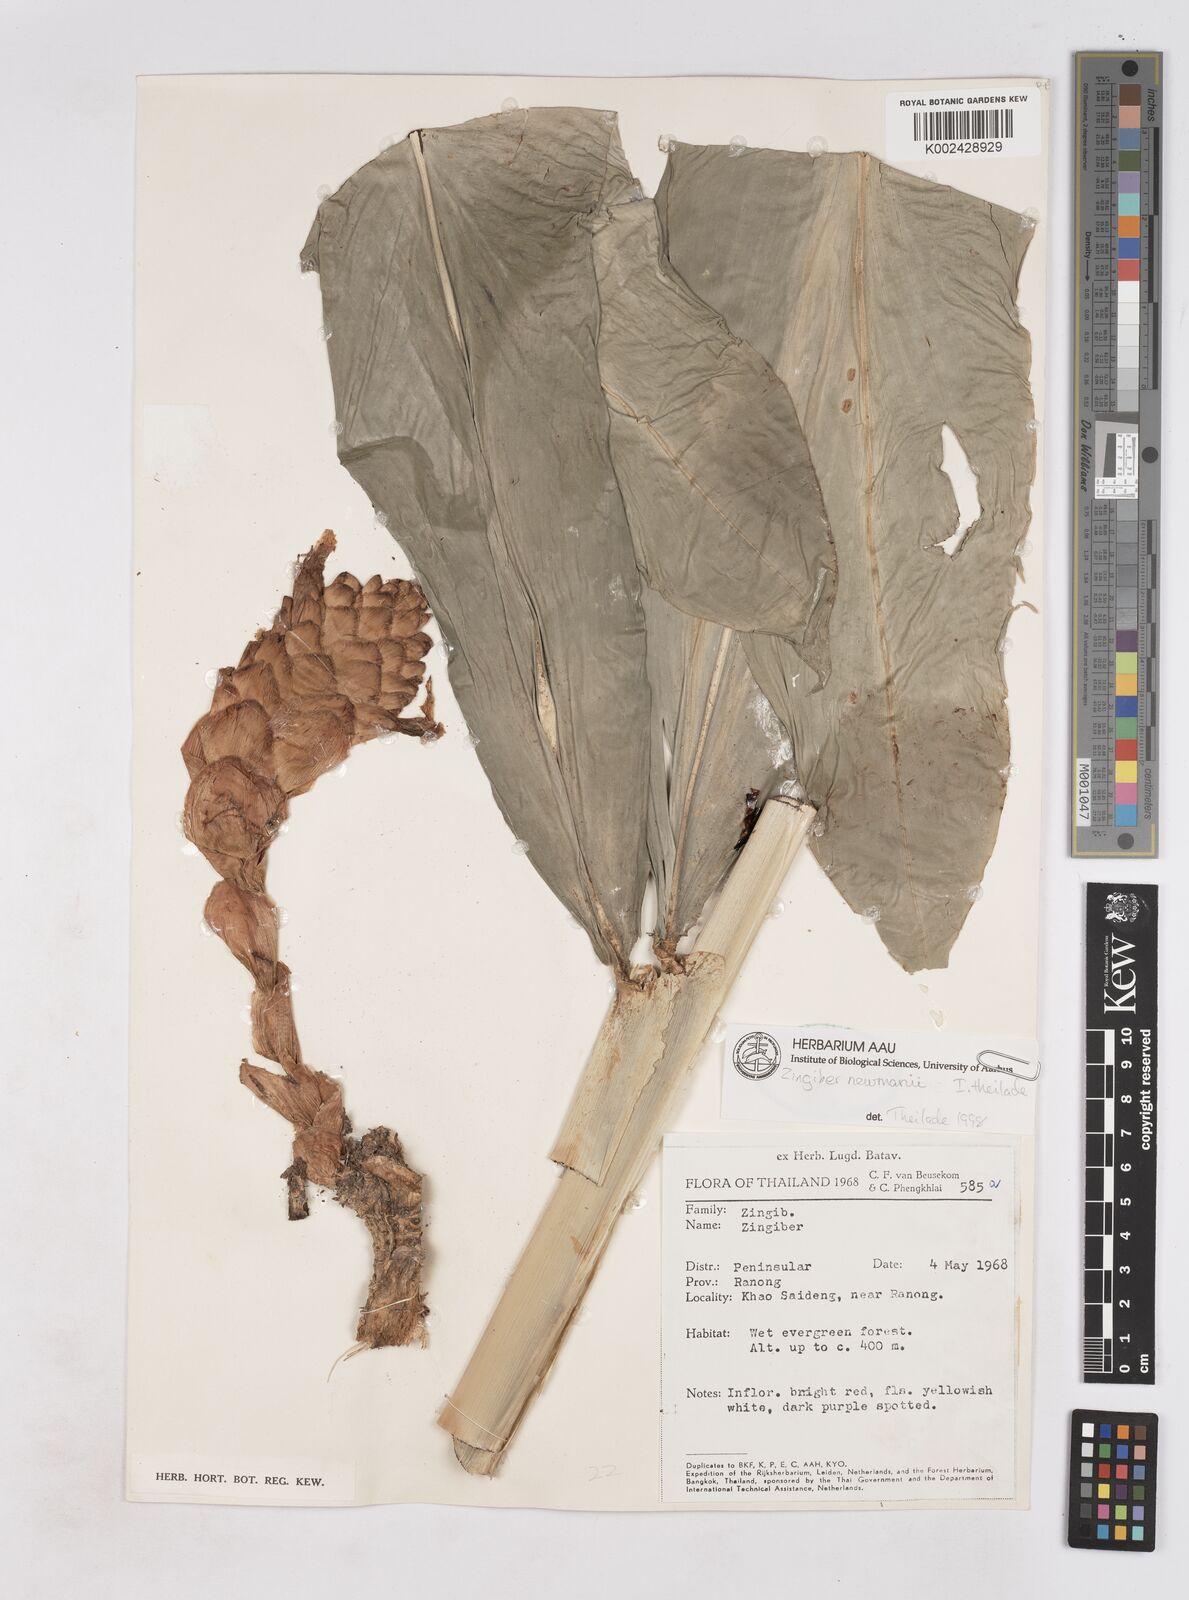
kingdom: Plantae
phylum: Tracheophyta
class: Liliopsida
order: Zingiberales
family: Zingiberaceae
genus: Zingiber
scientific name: Zingiber montanum
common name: Bengal ginger
